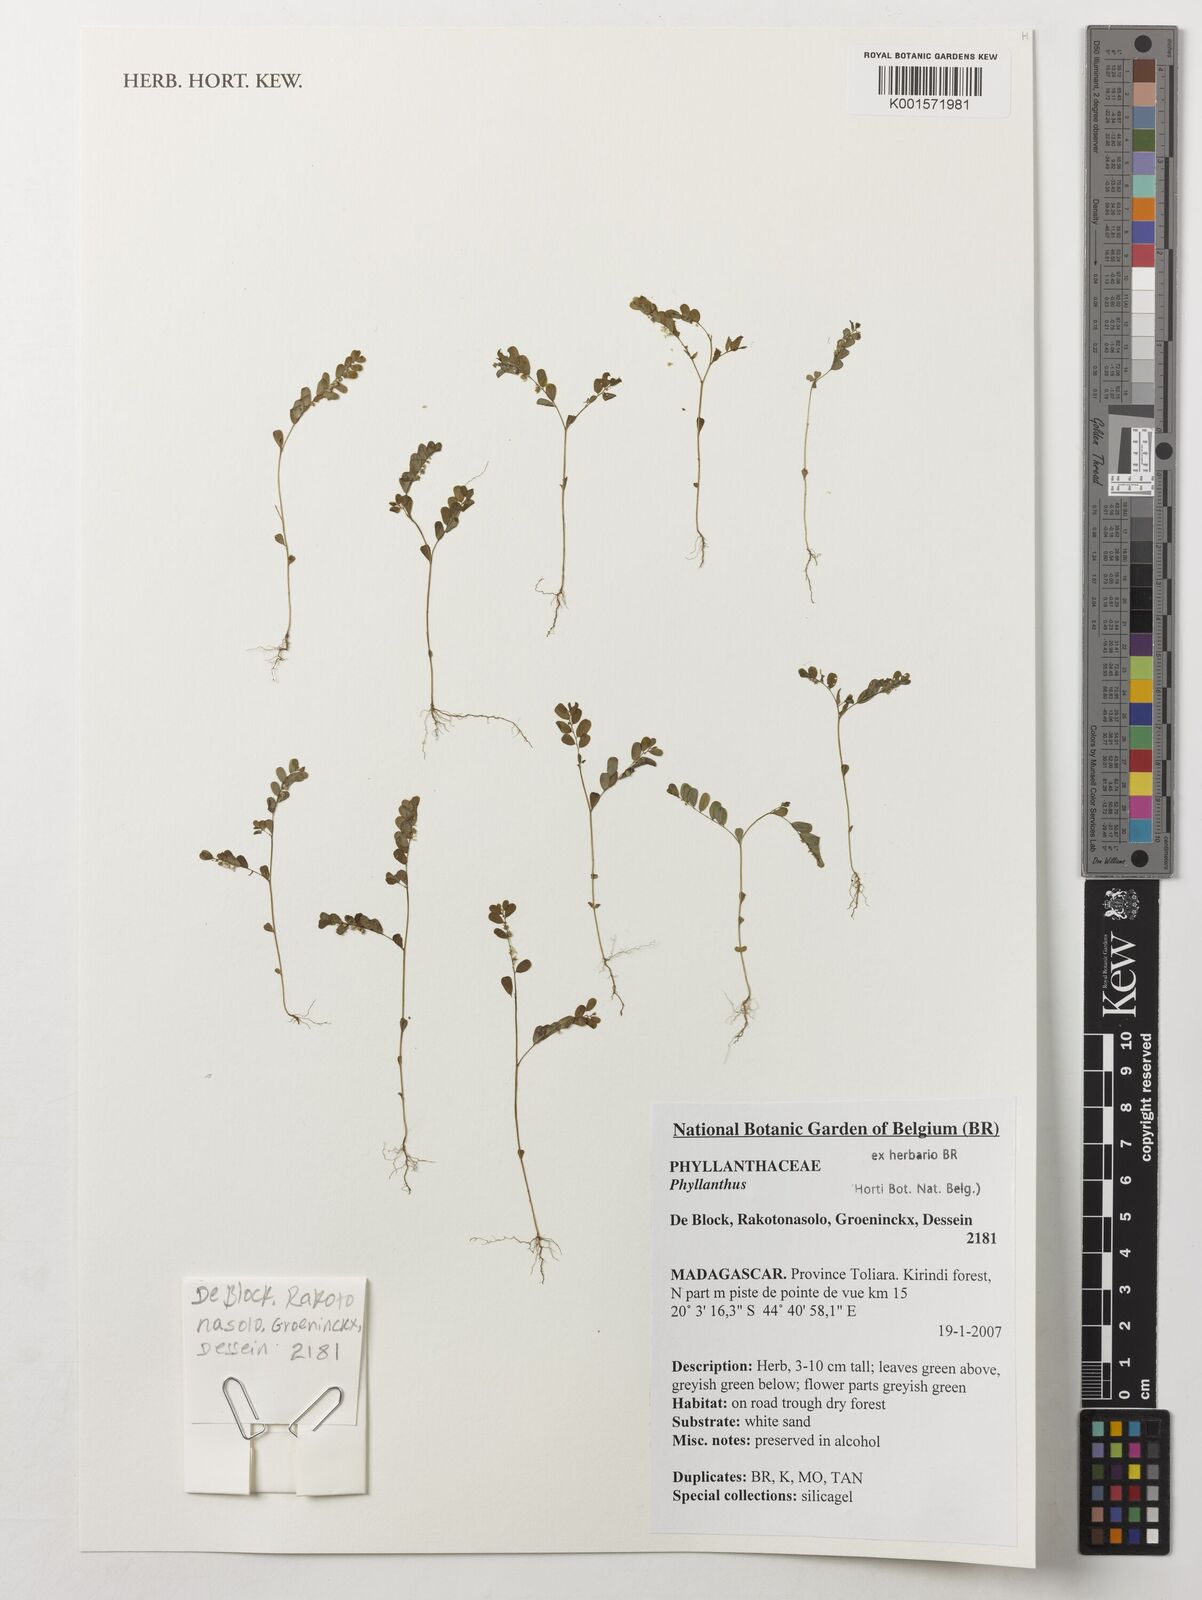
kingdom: Plantae
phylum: Tracheophyta
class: Magnoliopsida
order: Malpighiales
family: Phyllanthaceae
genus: Phyllanthus
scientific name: Phyllanthus
